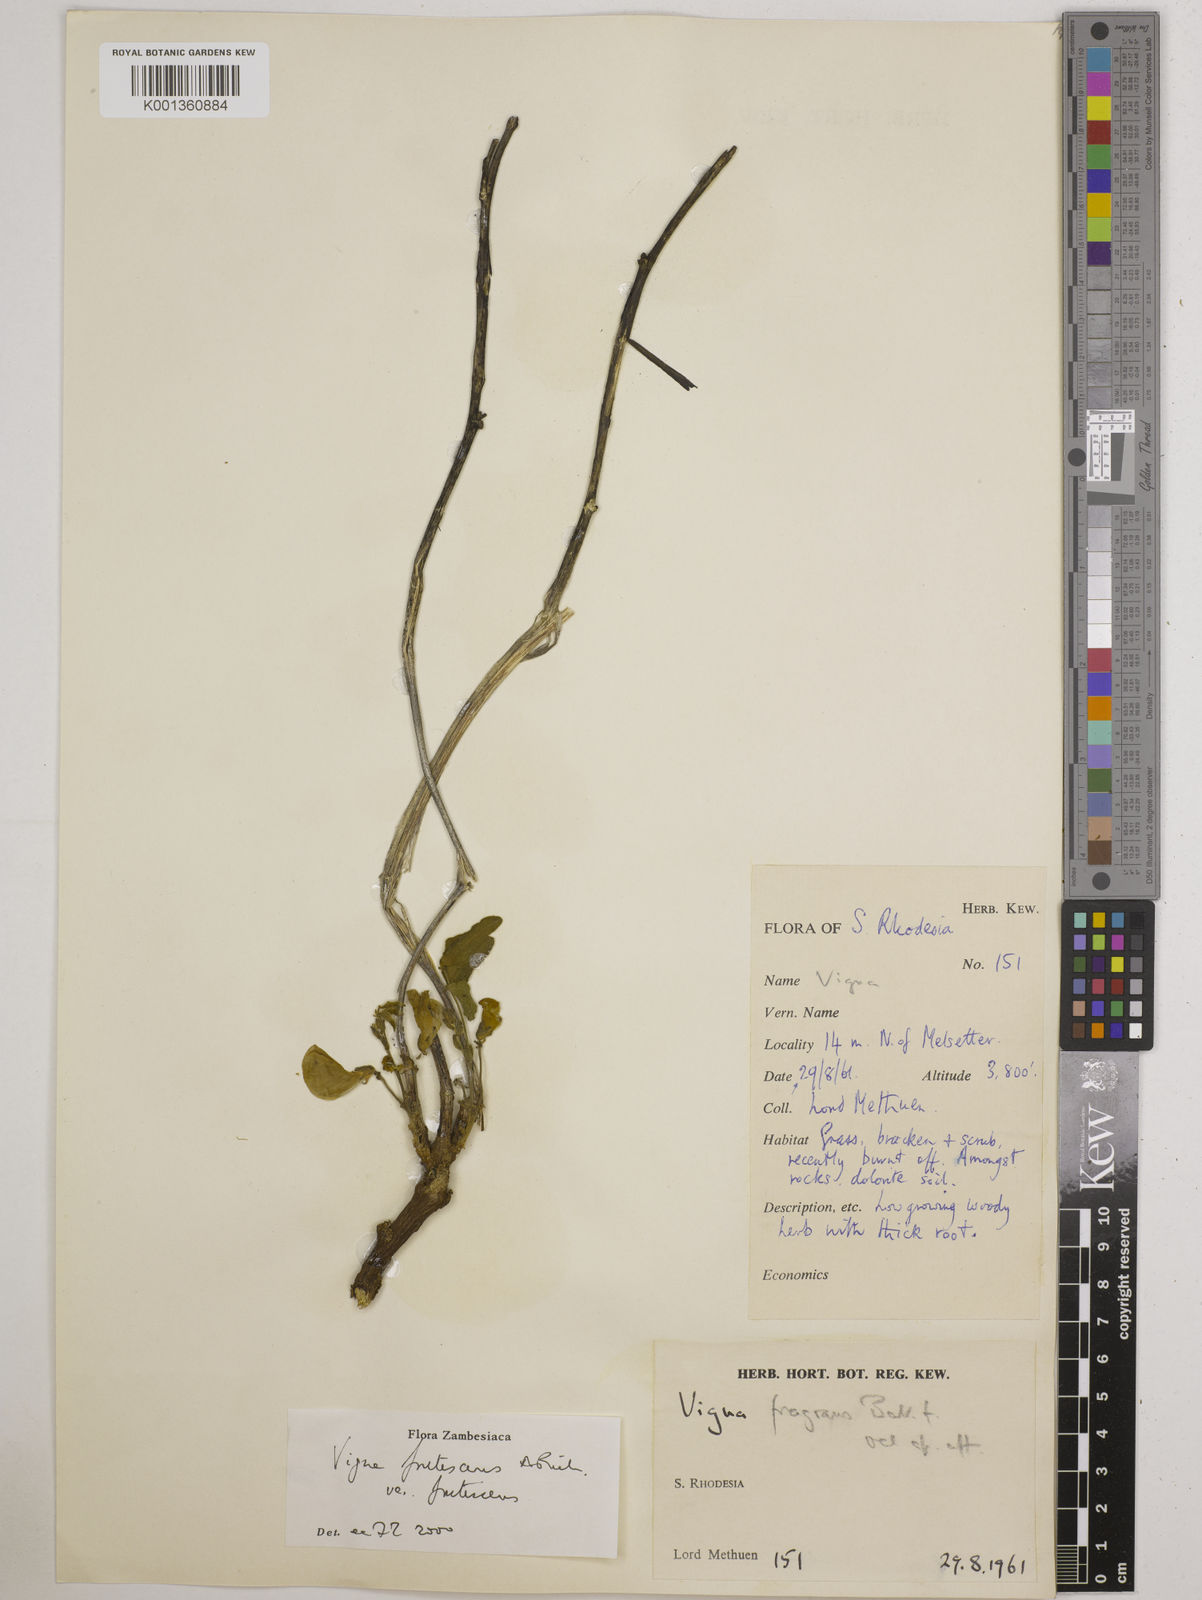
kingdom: Plantae
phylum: Tracheophyta
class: Magnoliopsida
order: Fabales
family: Fabaceae
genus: Vigna
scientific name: Vigna
